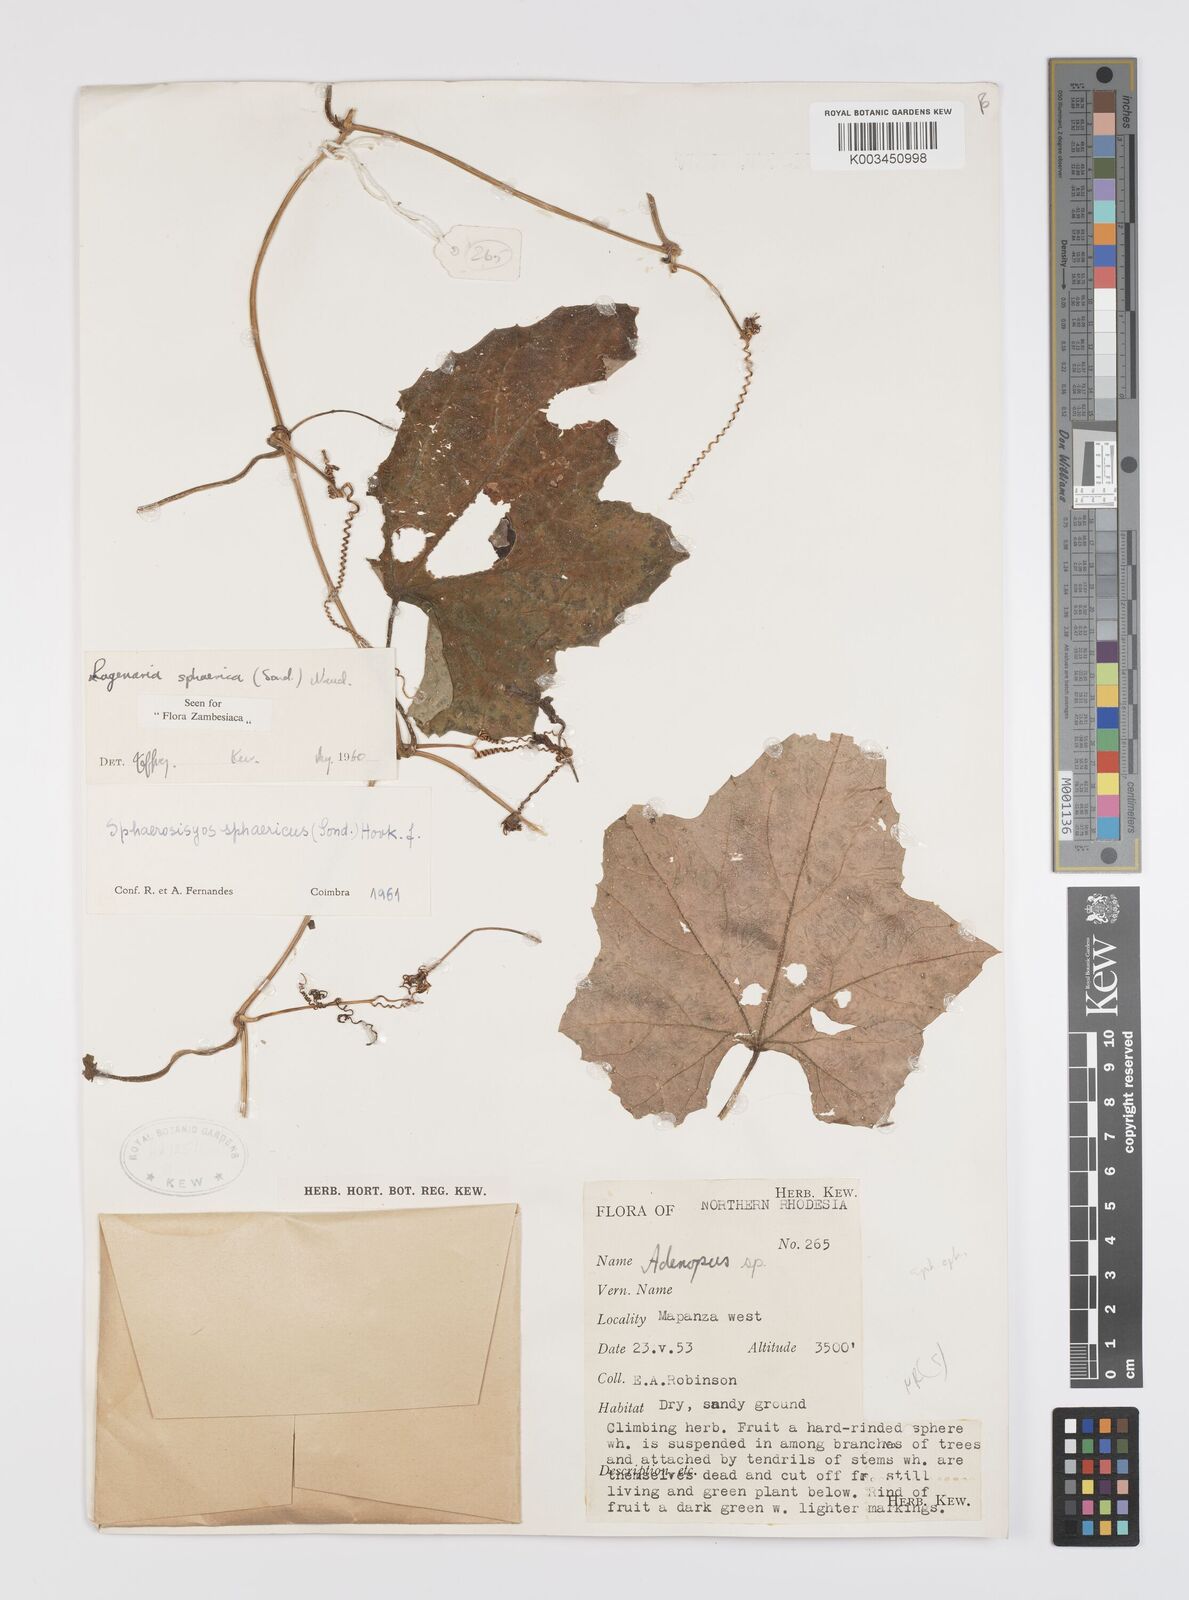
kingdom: Plantae
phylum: Tracheophyta
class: Magnoliopsida
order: Cucurbitales
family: Cucurbitaceae
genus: Lagenaria
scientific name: Lagenaria sphaerica
